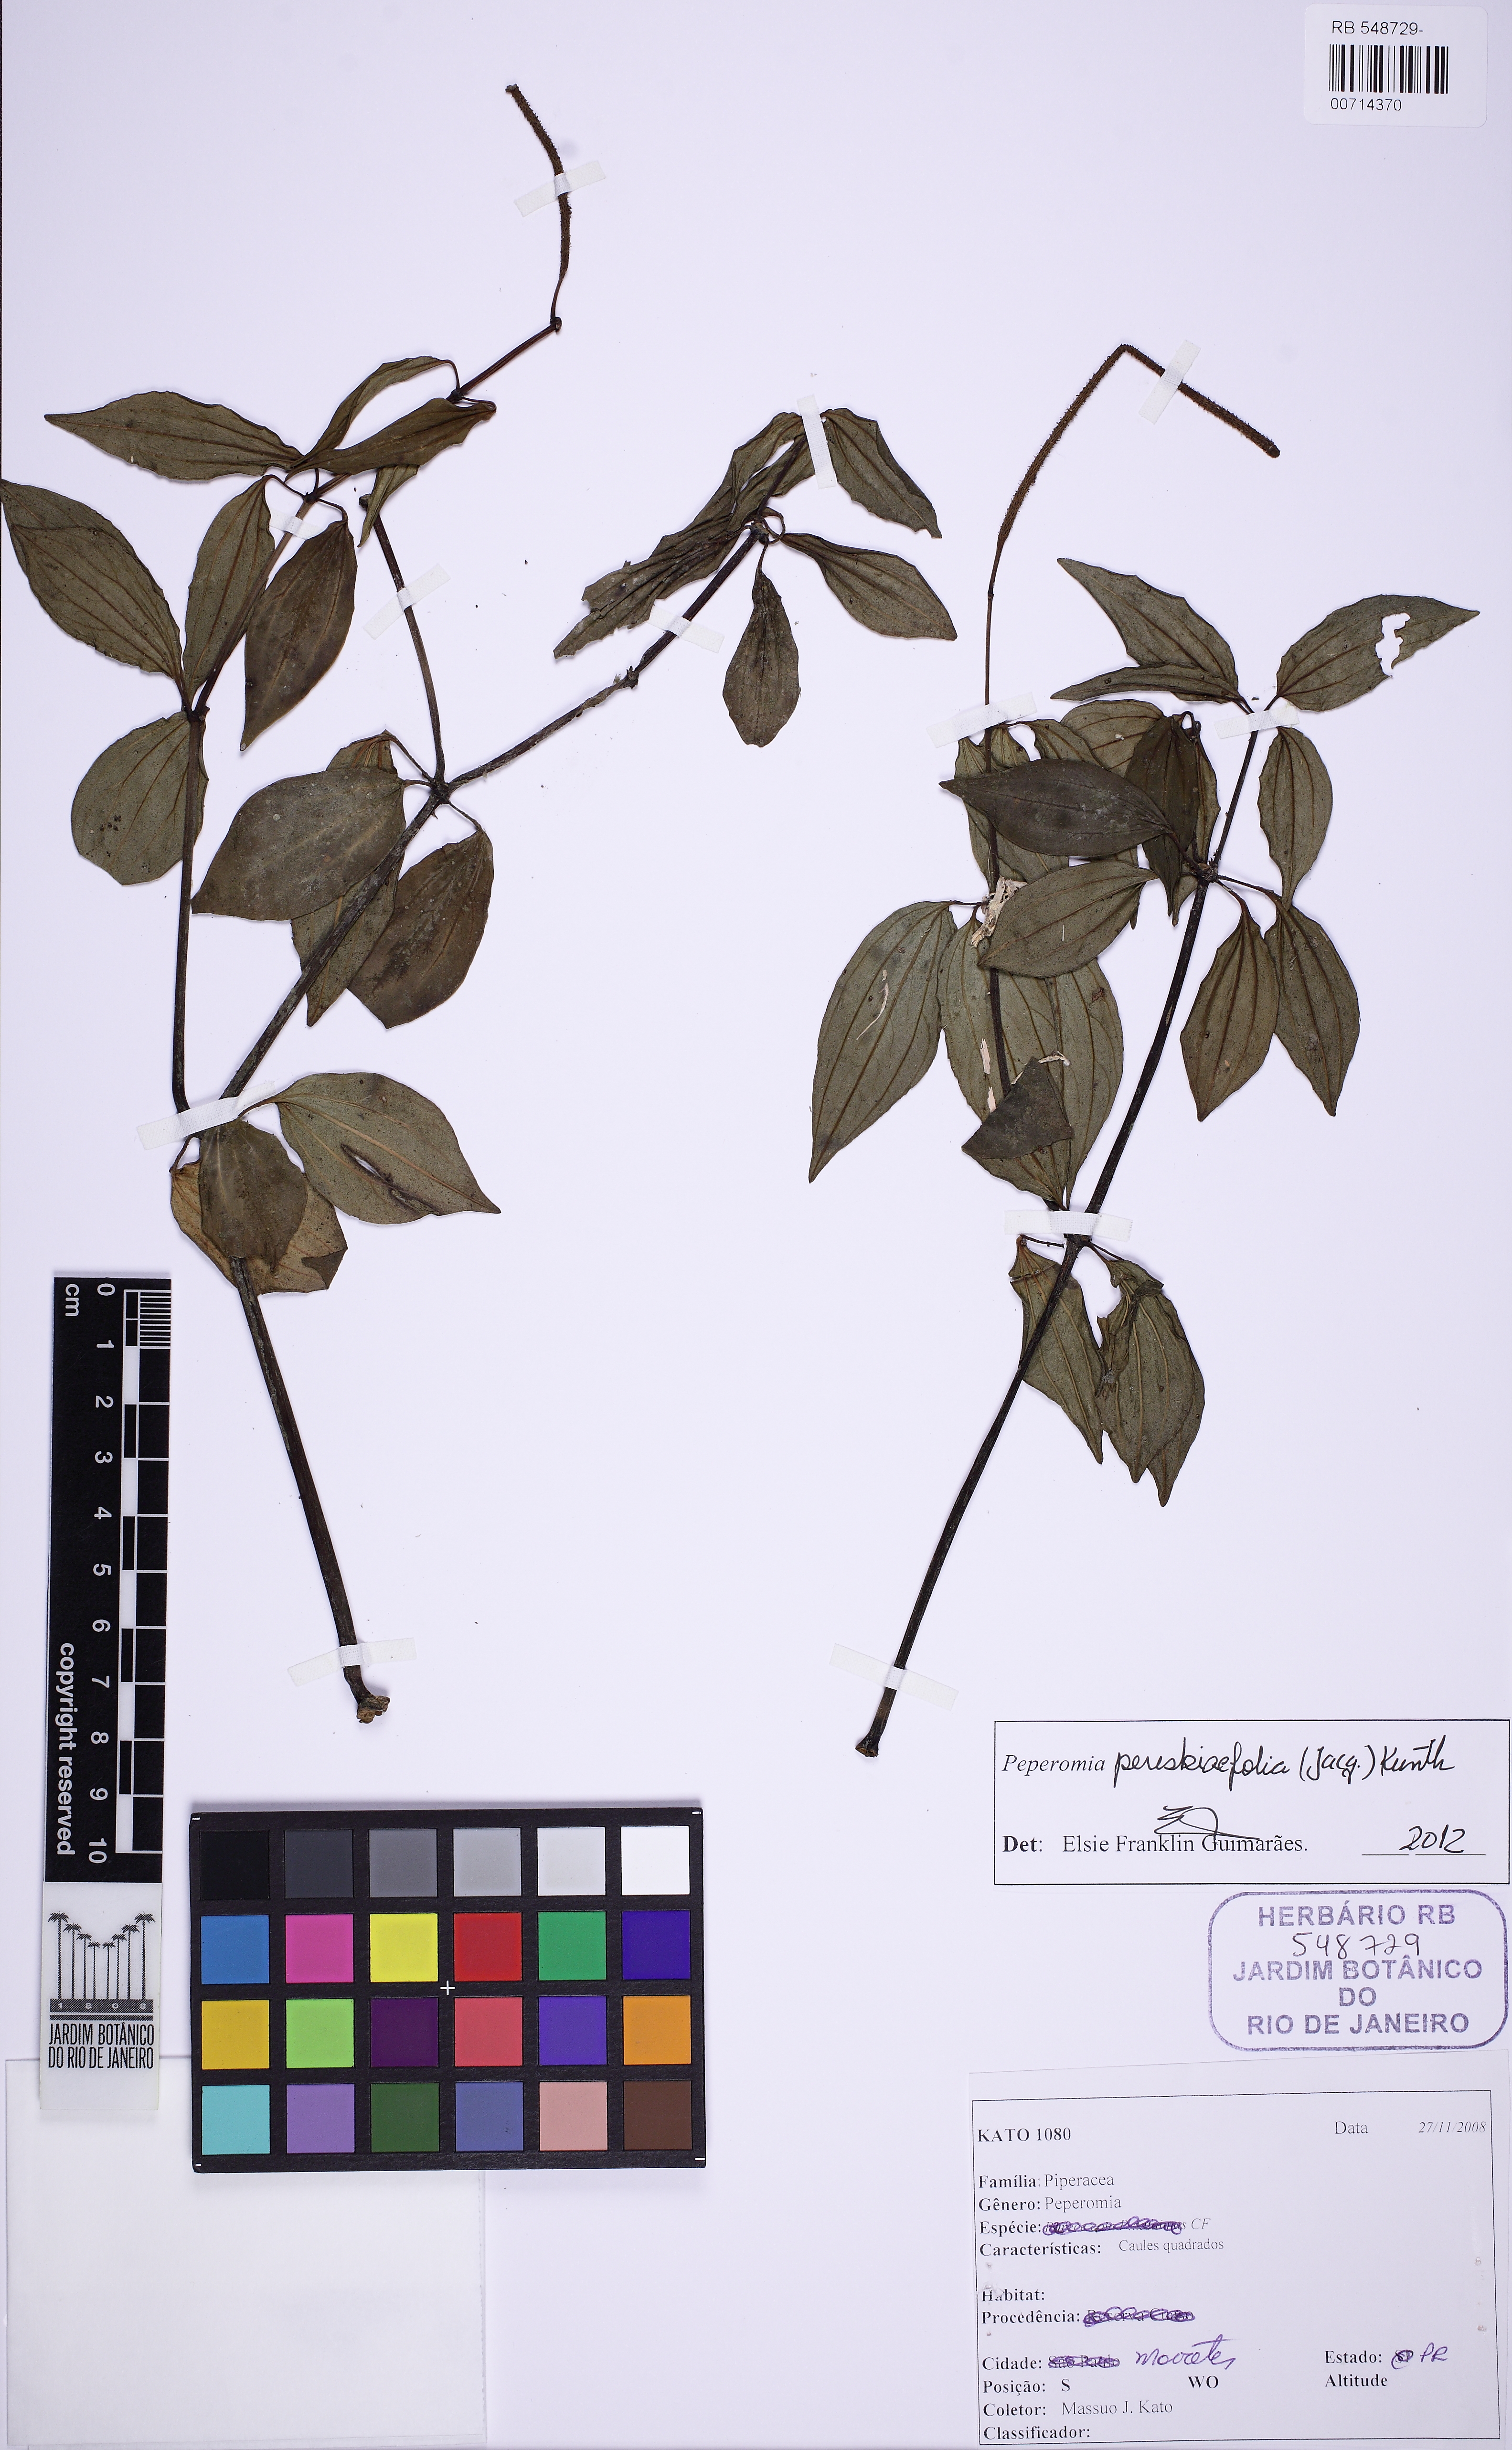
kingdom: Plantae
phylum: Tracheophyta
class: Magnoliopsida
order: Piperales
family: Piperaceae
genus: Peperomia
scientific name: Peperomia megapotamica
